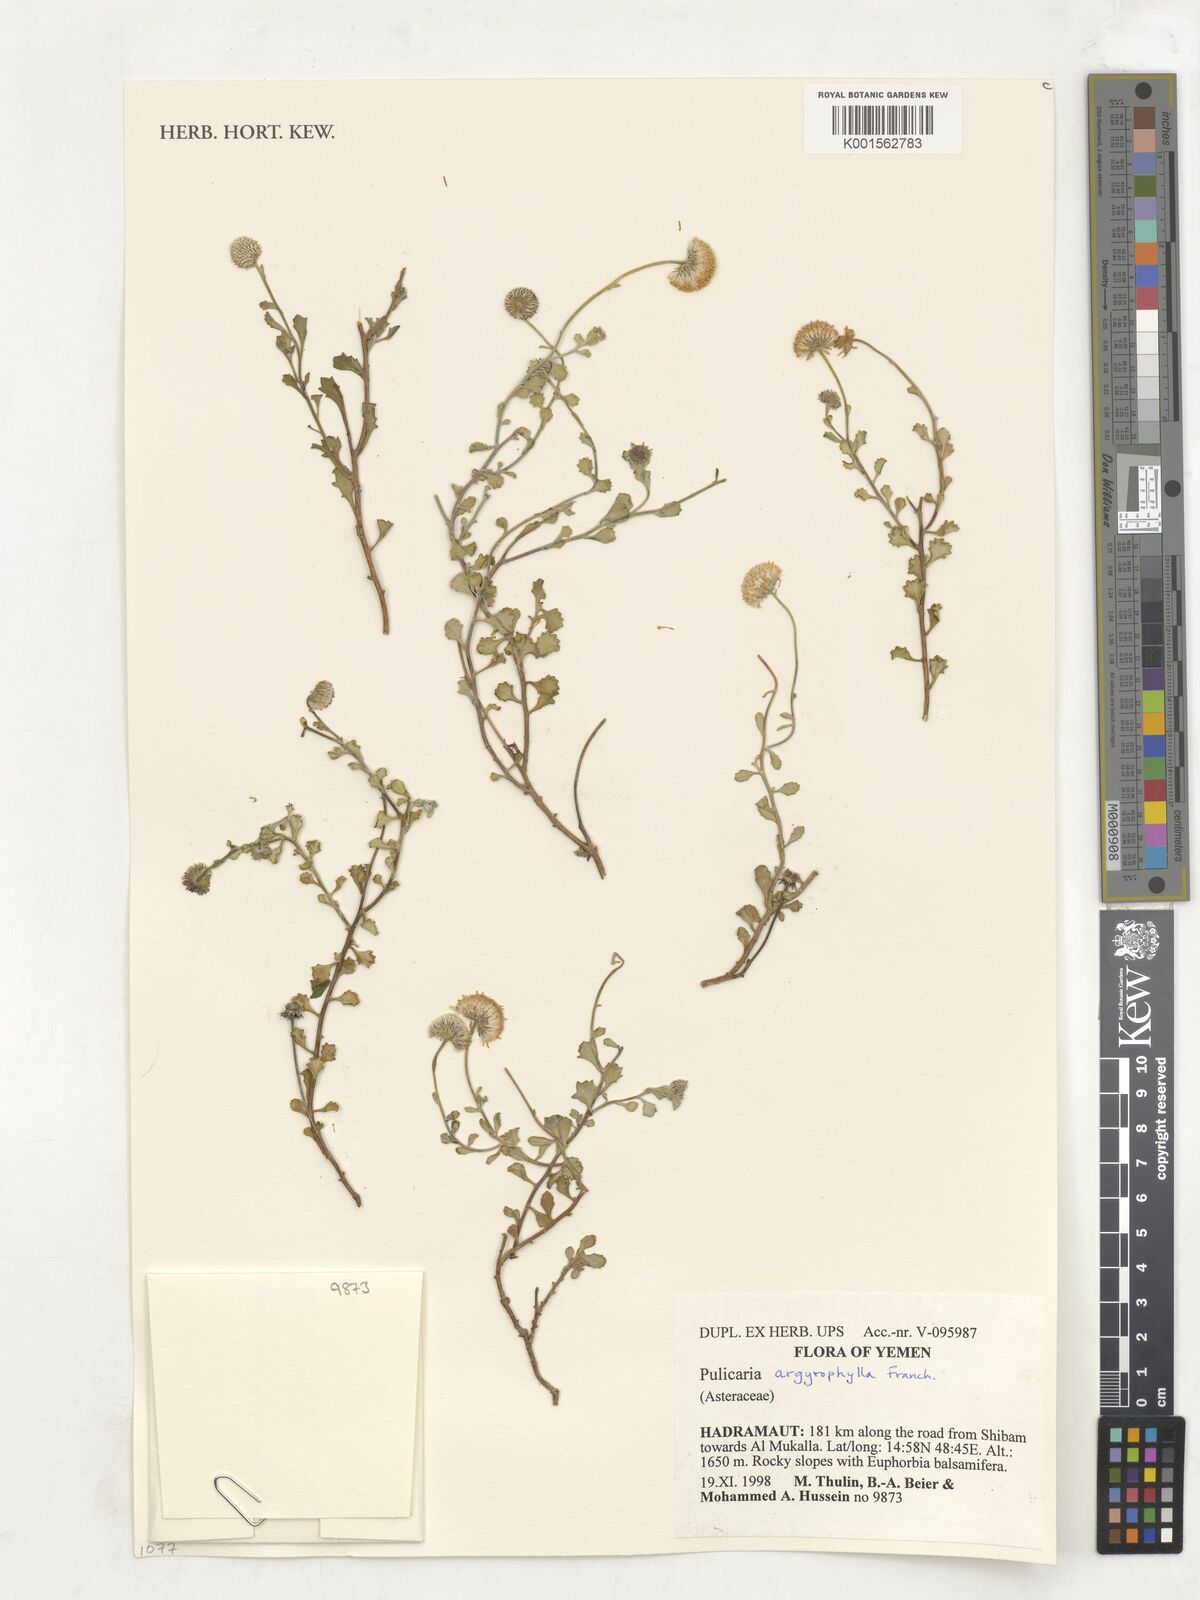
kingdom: Plantae
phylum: Tracheophyta
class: Magnoliopsida
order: Asterales
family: Asteraceae
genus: Pulicaria
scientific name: Pulicaria argyrophylla
